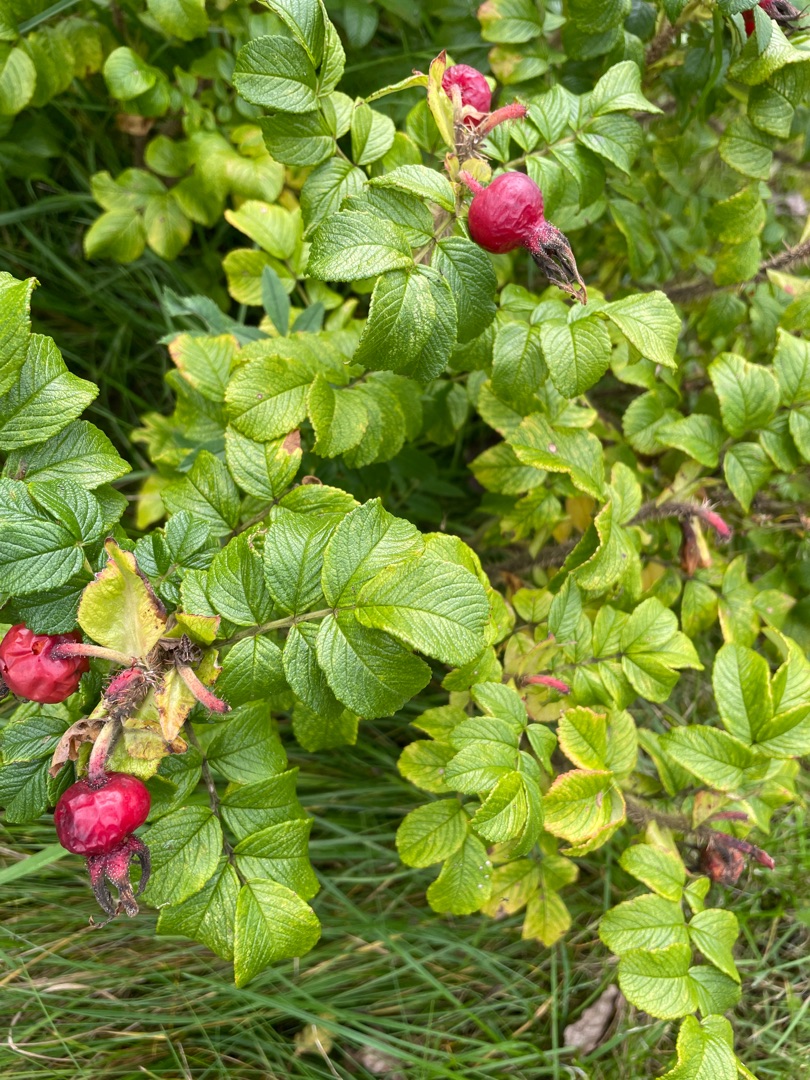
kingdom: Plantae
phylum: Tracheophyta
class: Magnoliopsida
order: Rosales
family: Rosaceae
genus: Rosa
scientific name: Rosa rugosa
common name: Rynket rose
